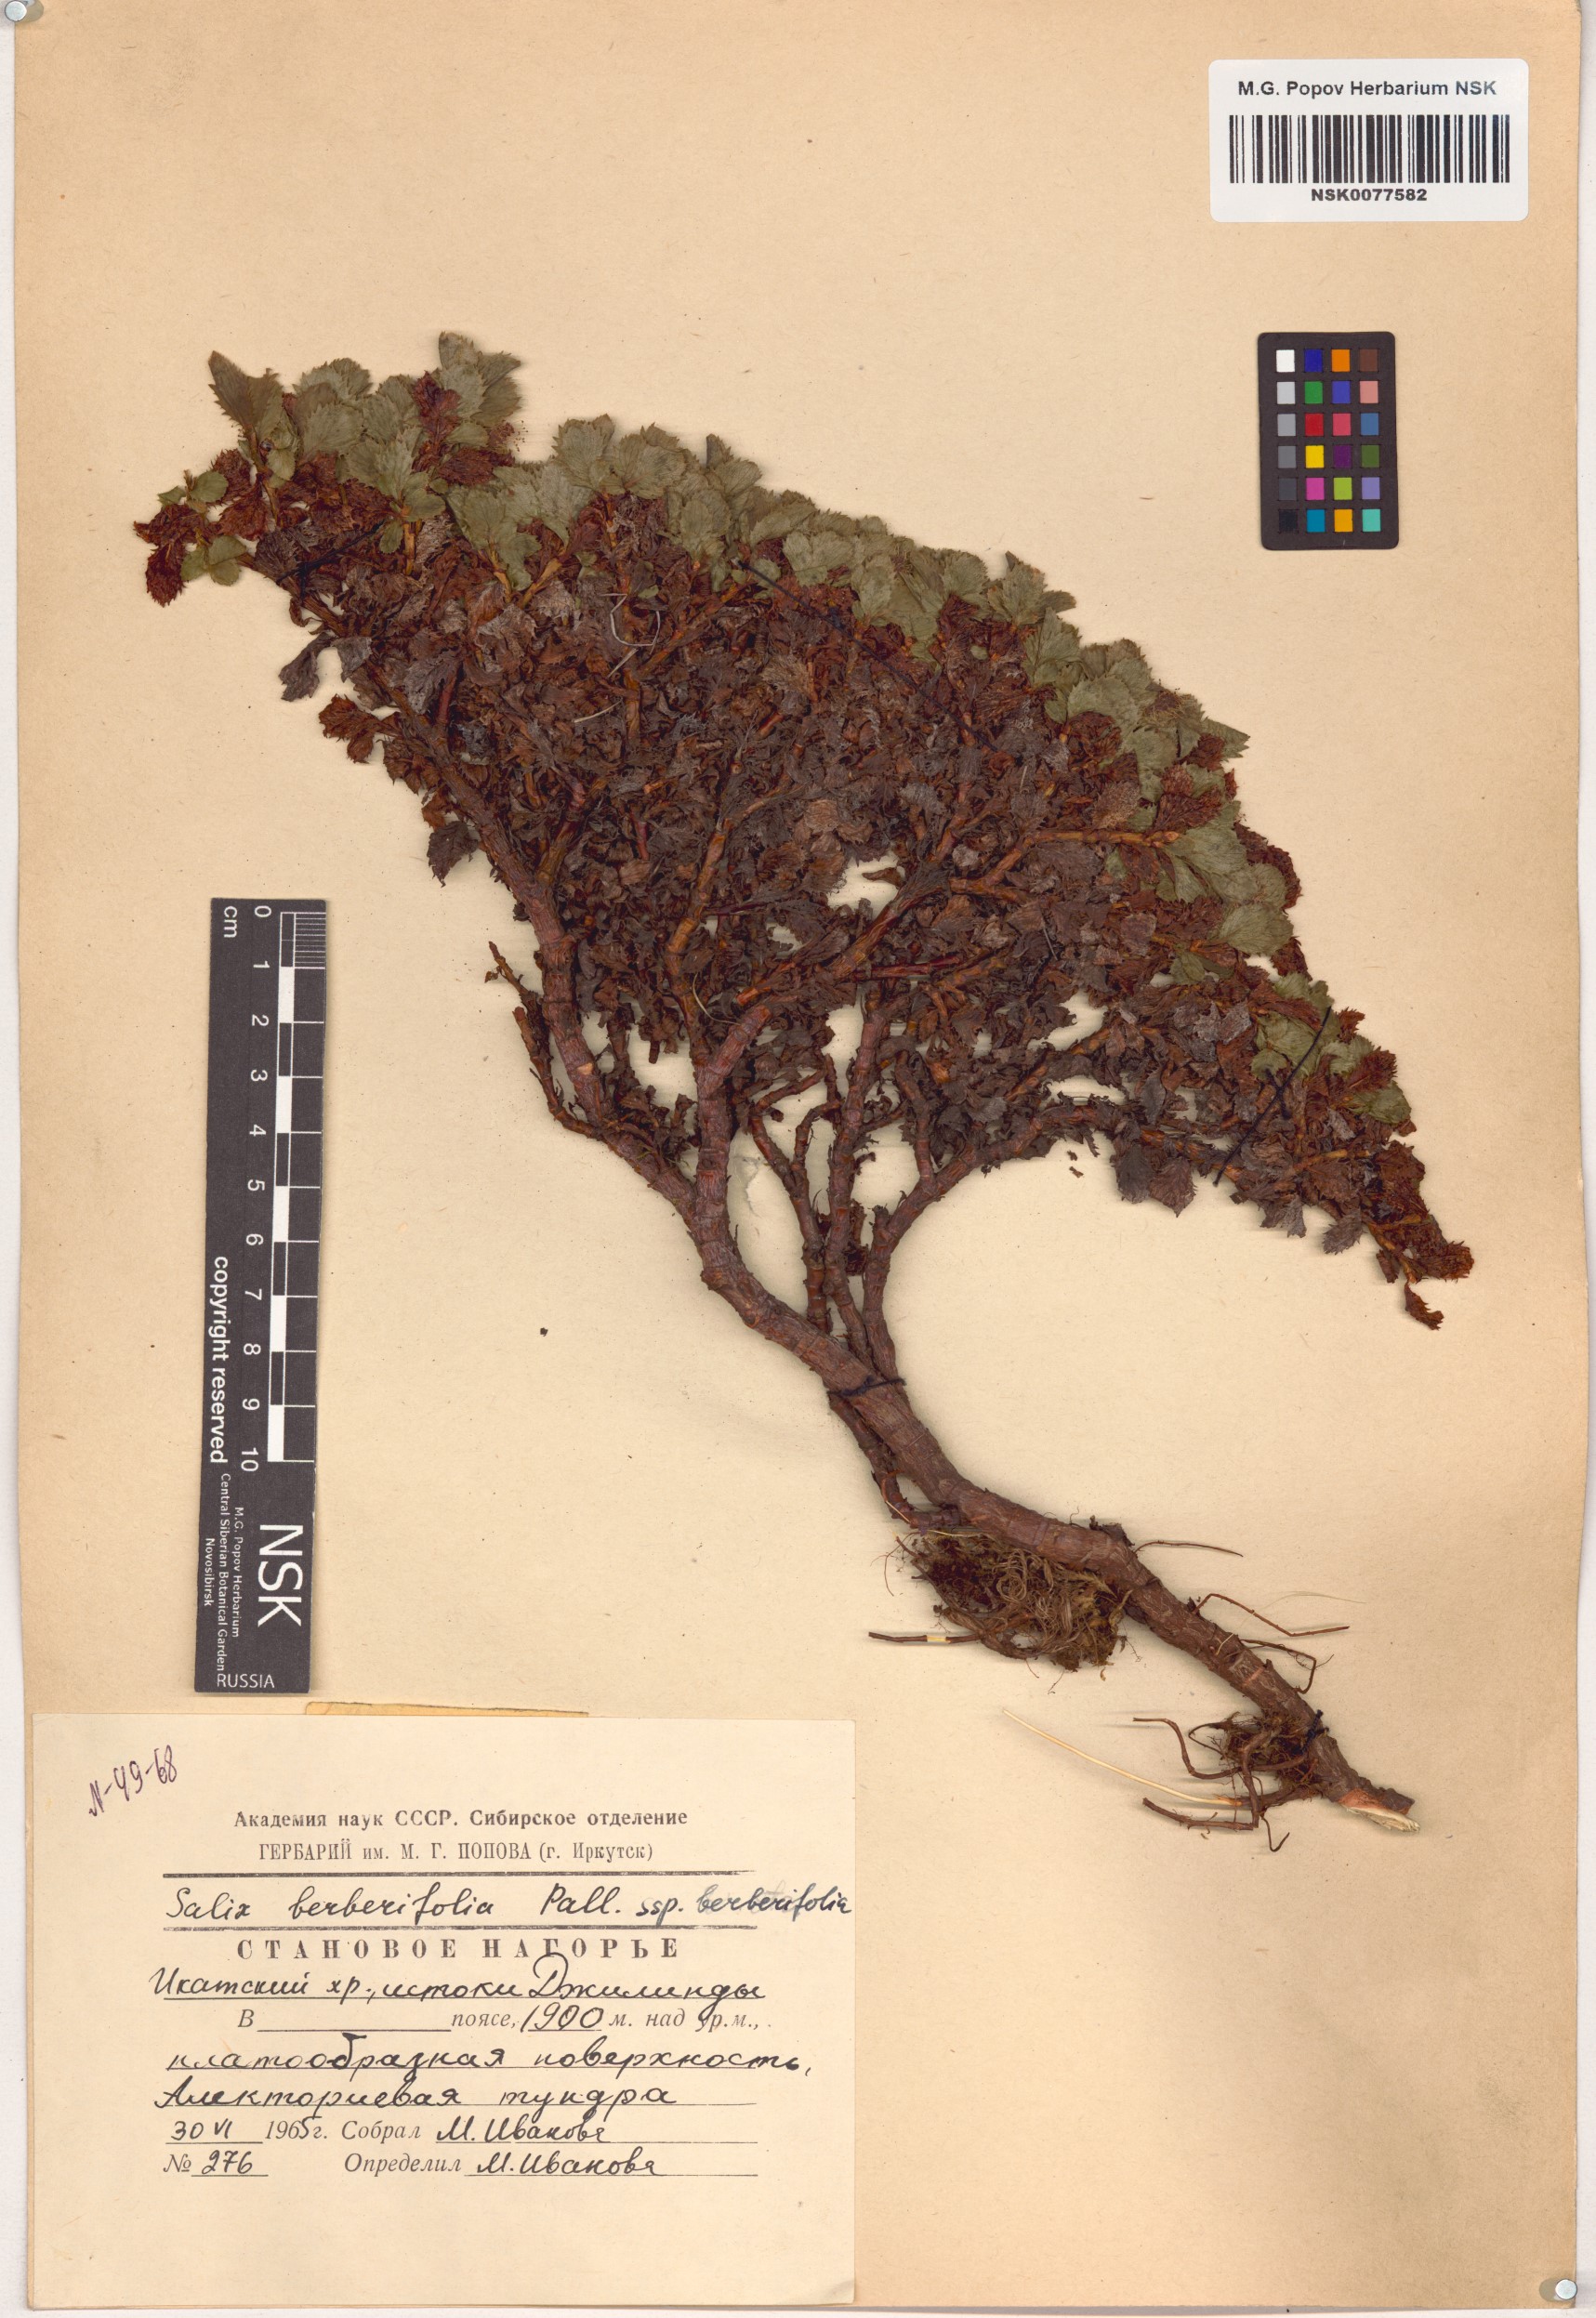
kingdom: Plantae
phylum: Tracheophyta
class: Magnoliopsida
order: Malpighiales
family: Salicaceae
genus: Salix
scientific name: Salix berberifolia
